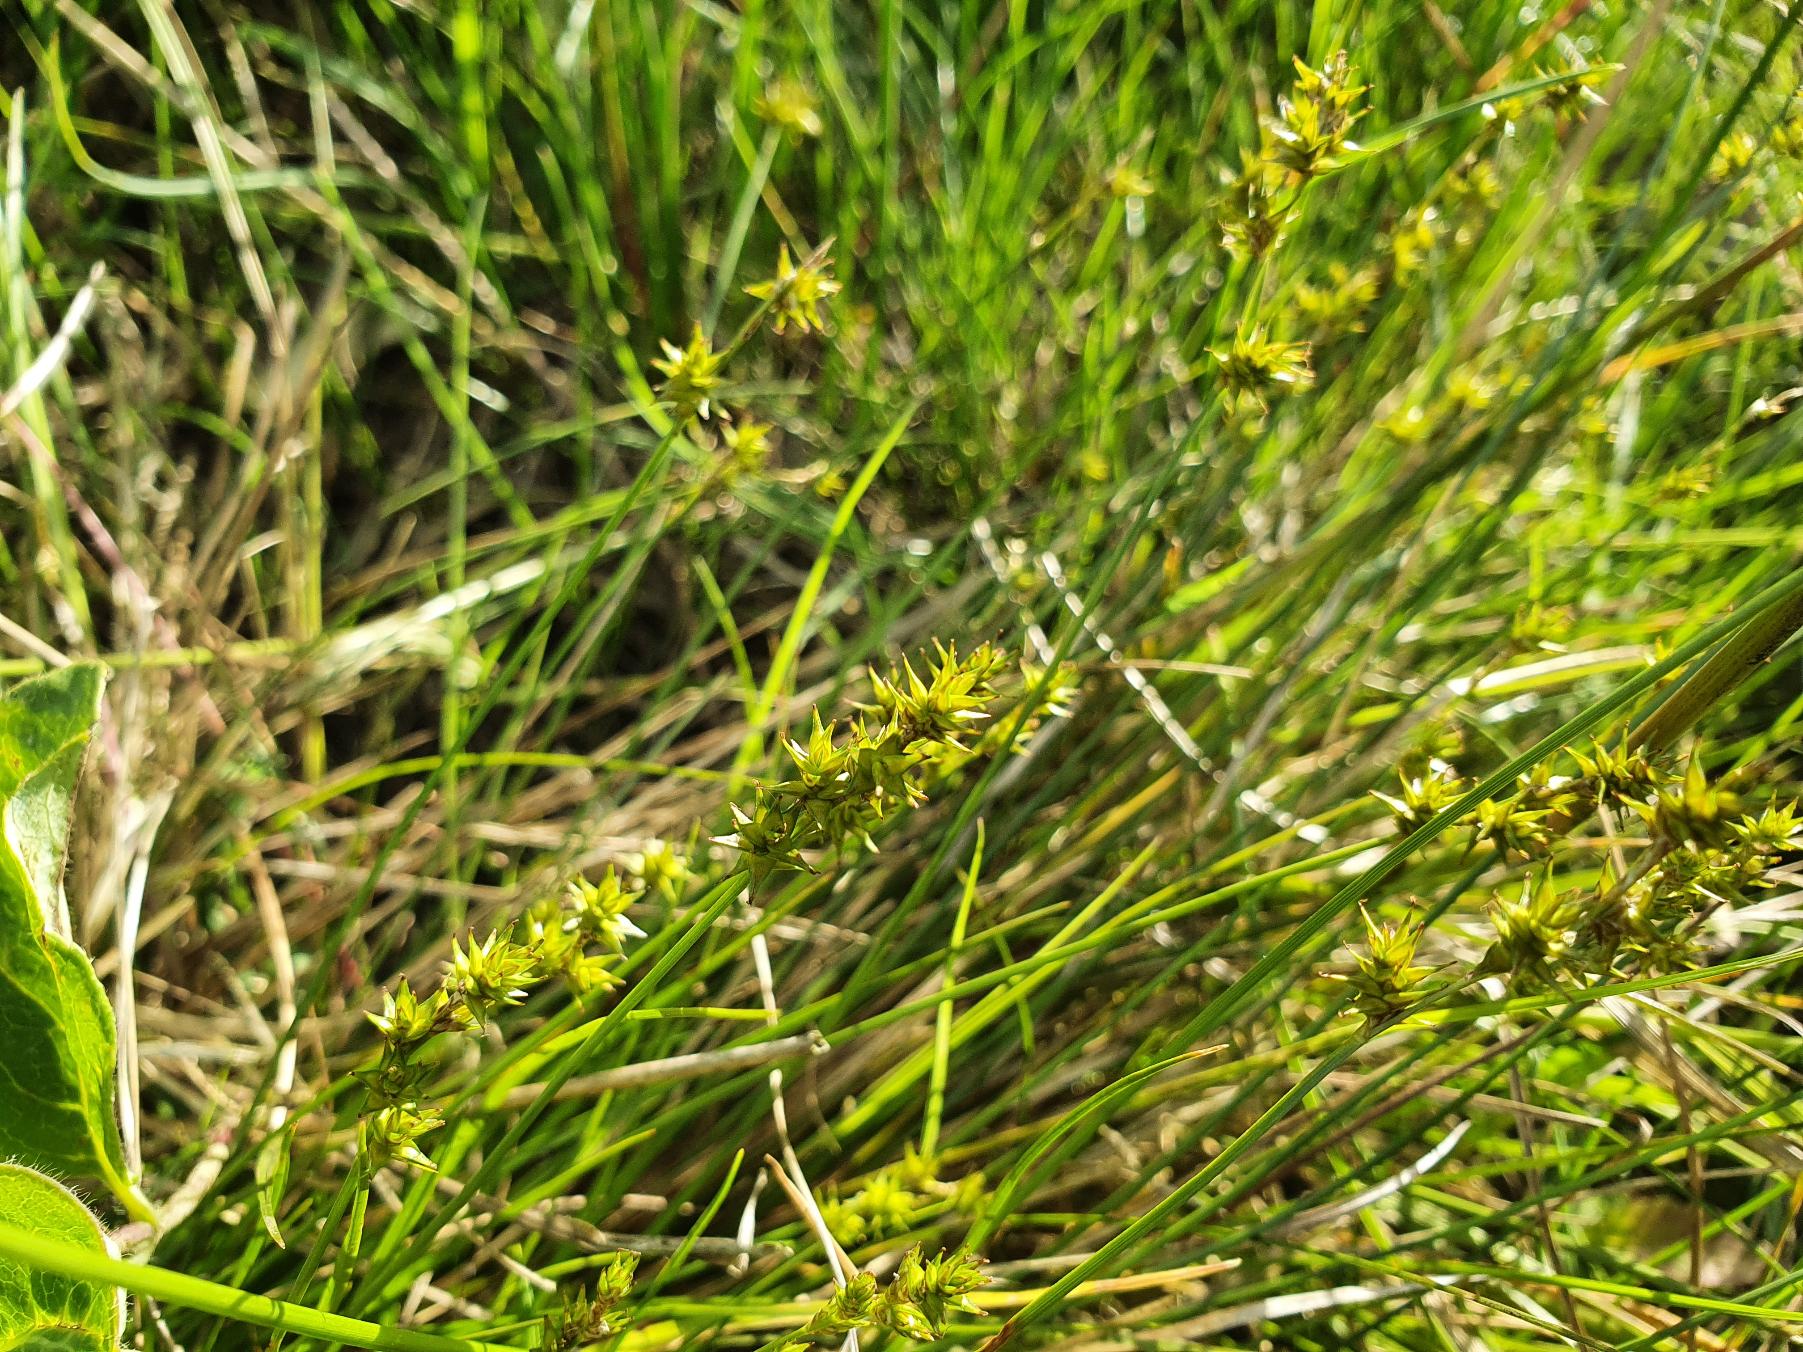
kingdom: Plantae
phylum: Tracheophyta
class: Liliopsida
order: Poales
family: Cyperaceae
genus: Carex
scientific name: Carex echinata
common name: Stjerne-star
